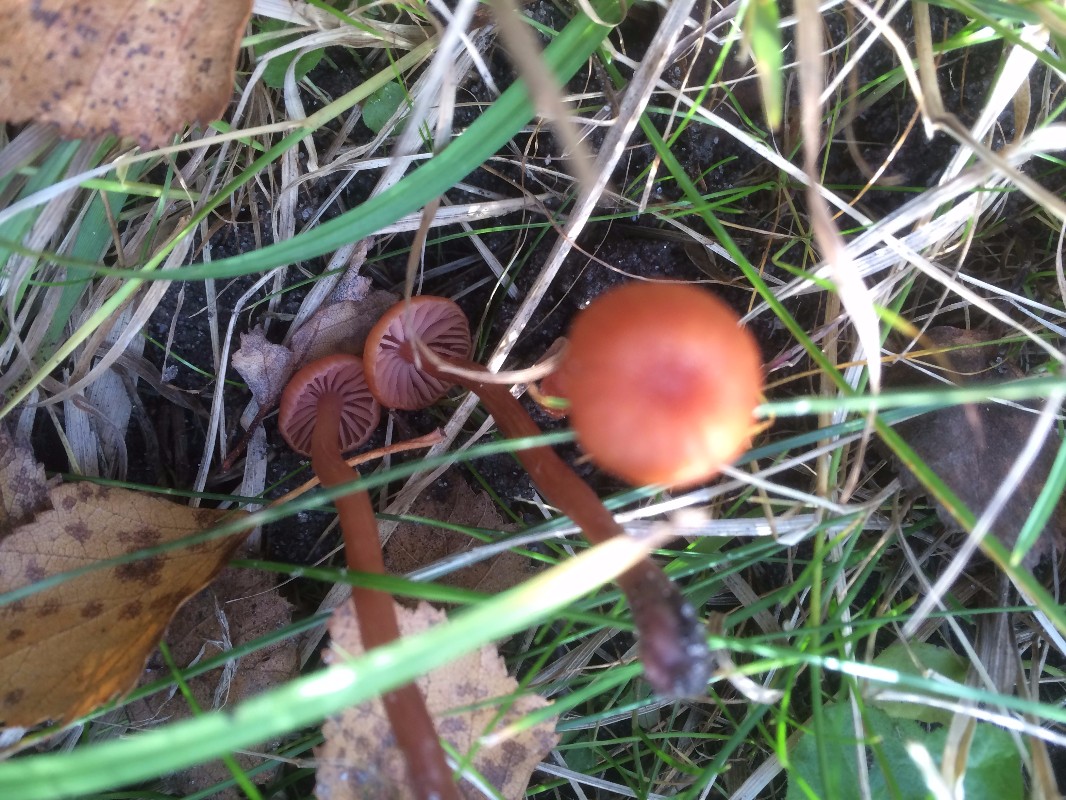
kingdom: Fungi
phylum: Basidiomycota
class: Agaricomycetes
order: Agaricales
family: Hydnangiaceae
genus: Laccaria
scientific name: Laccaria laccata
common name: rød ametysthat
